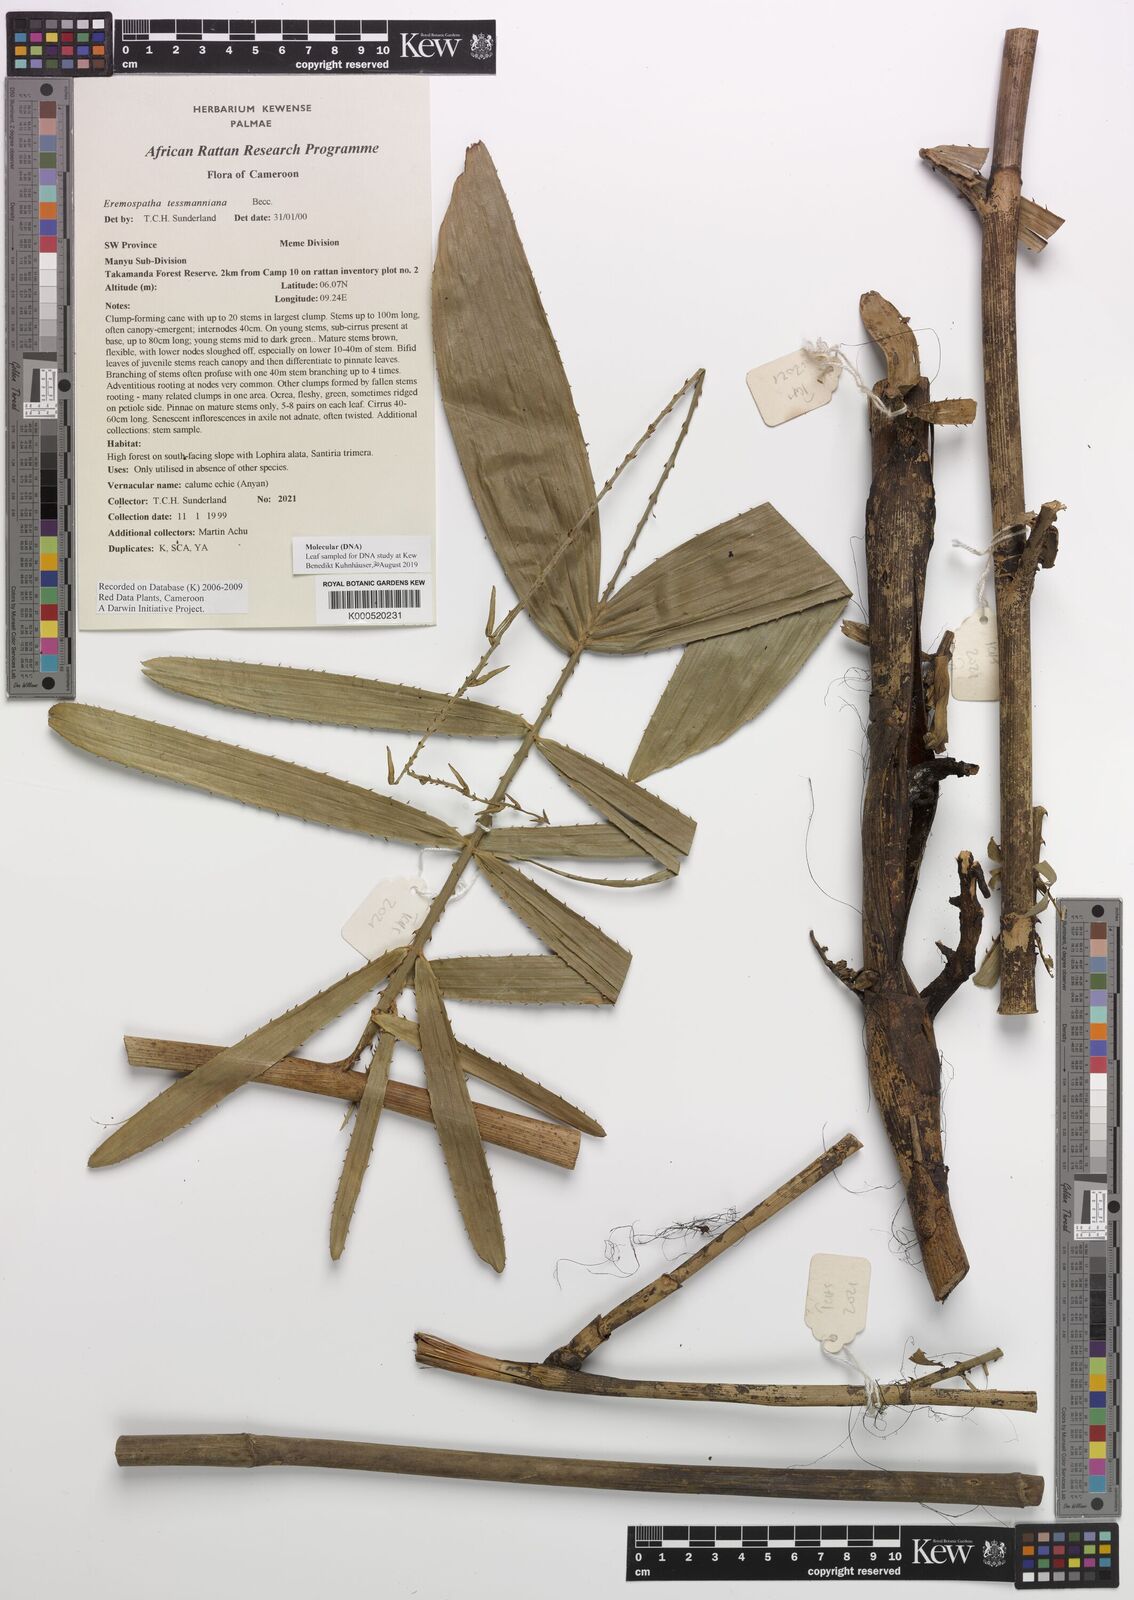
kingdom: Plantae
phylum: Tracheophyta
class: Liliopsida
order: Arecales
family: Arecaceae
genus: Eremospatha
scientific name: Eremospatha tessmanniana
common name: Rattan
